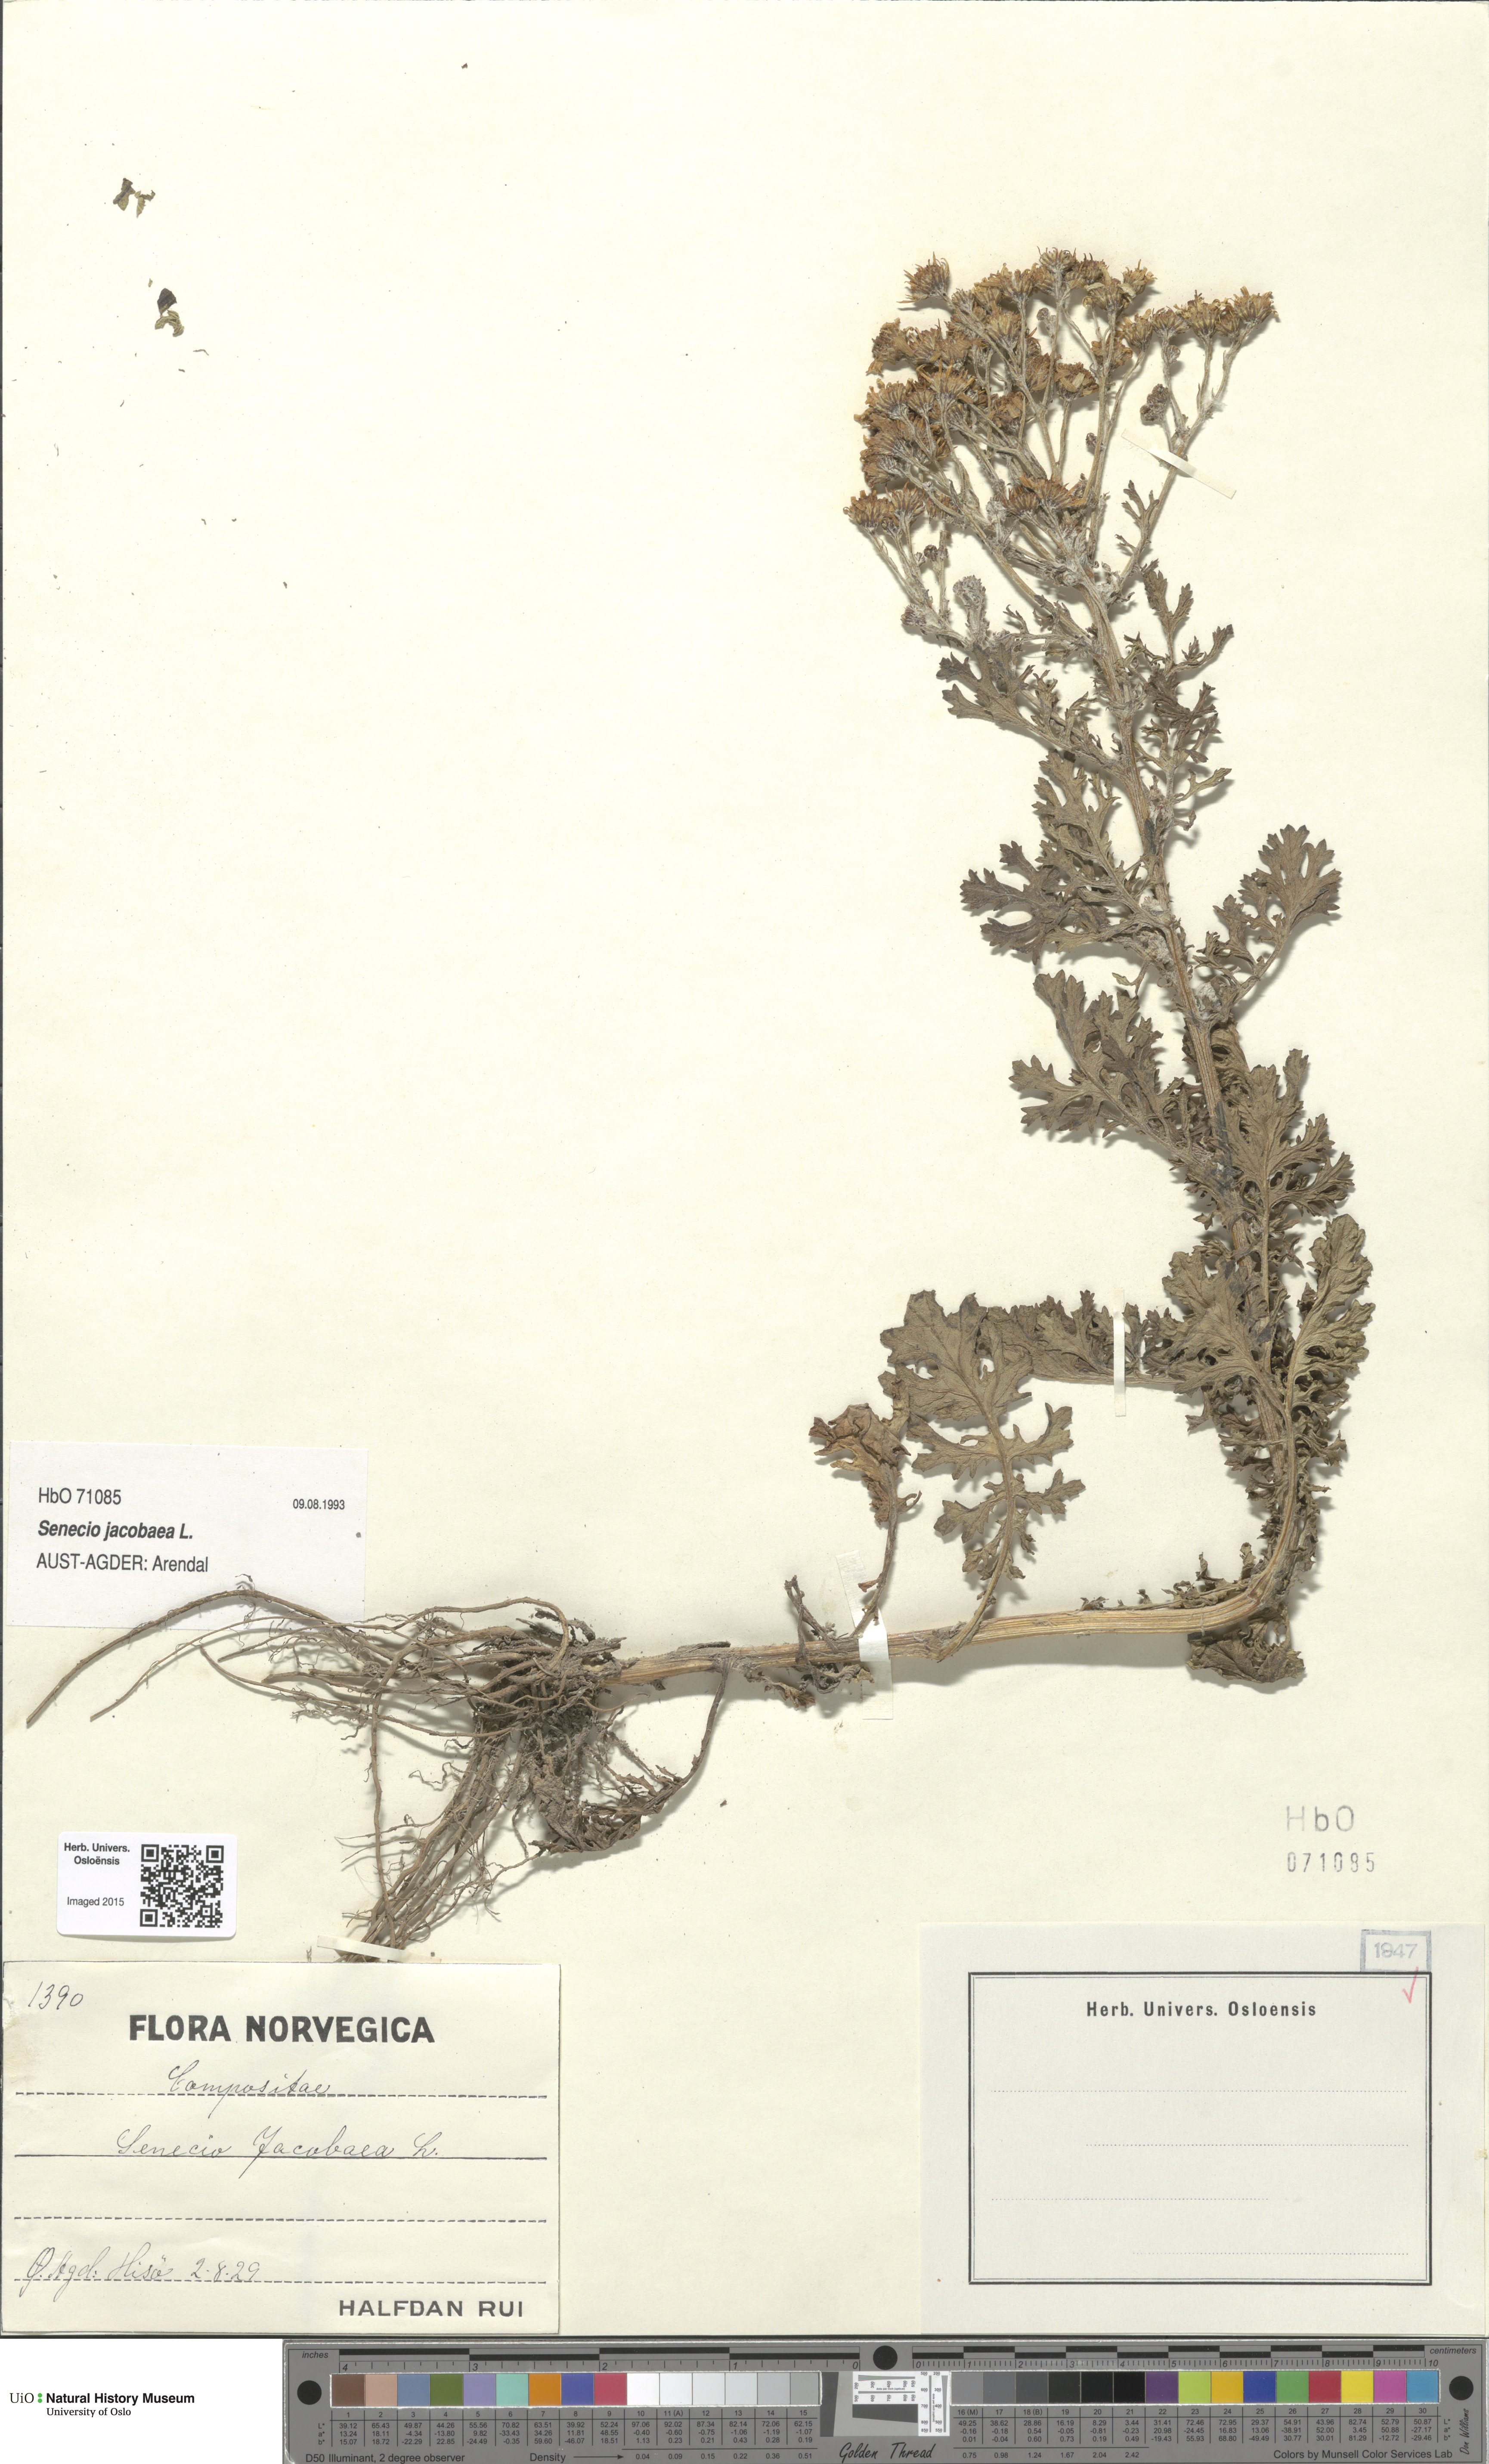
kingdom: Plantae
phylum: Tracheophyta
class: Magnoliopsida
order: Asterales
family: Asteraceae
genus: Jacobaea
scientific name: Jacobaea vulgaris
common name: Stinking willie
